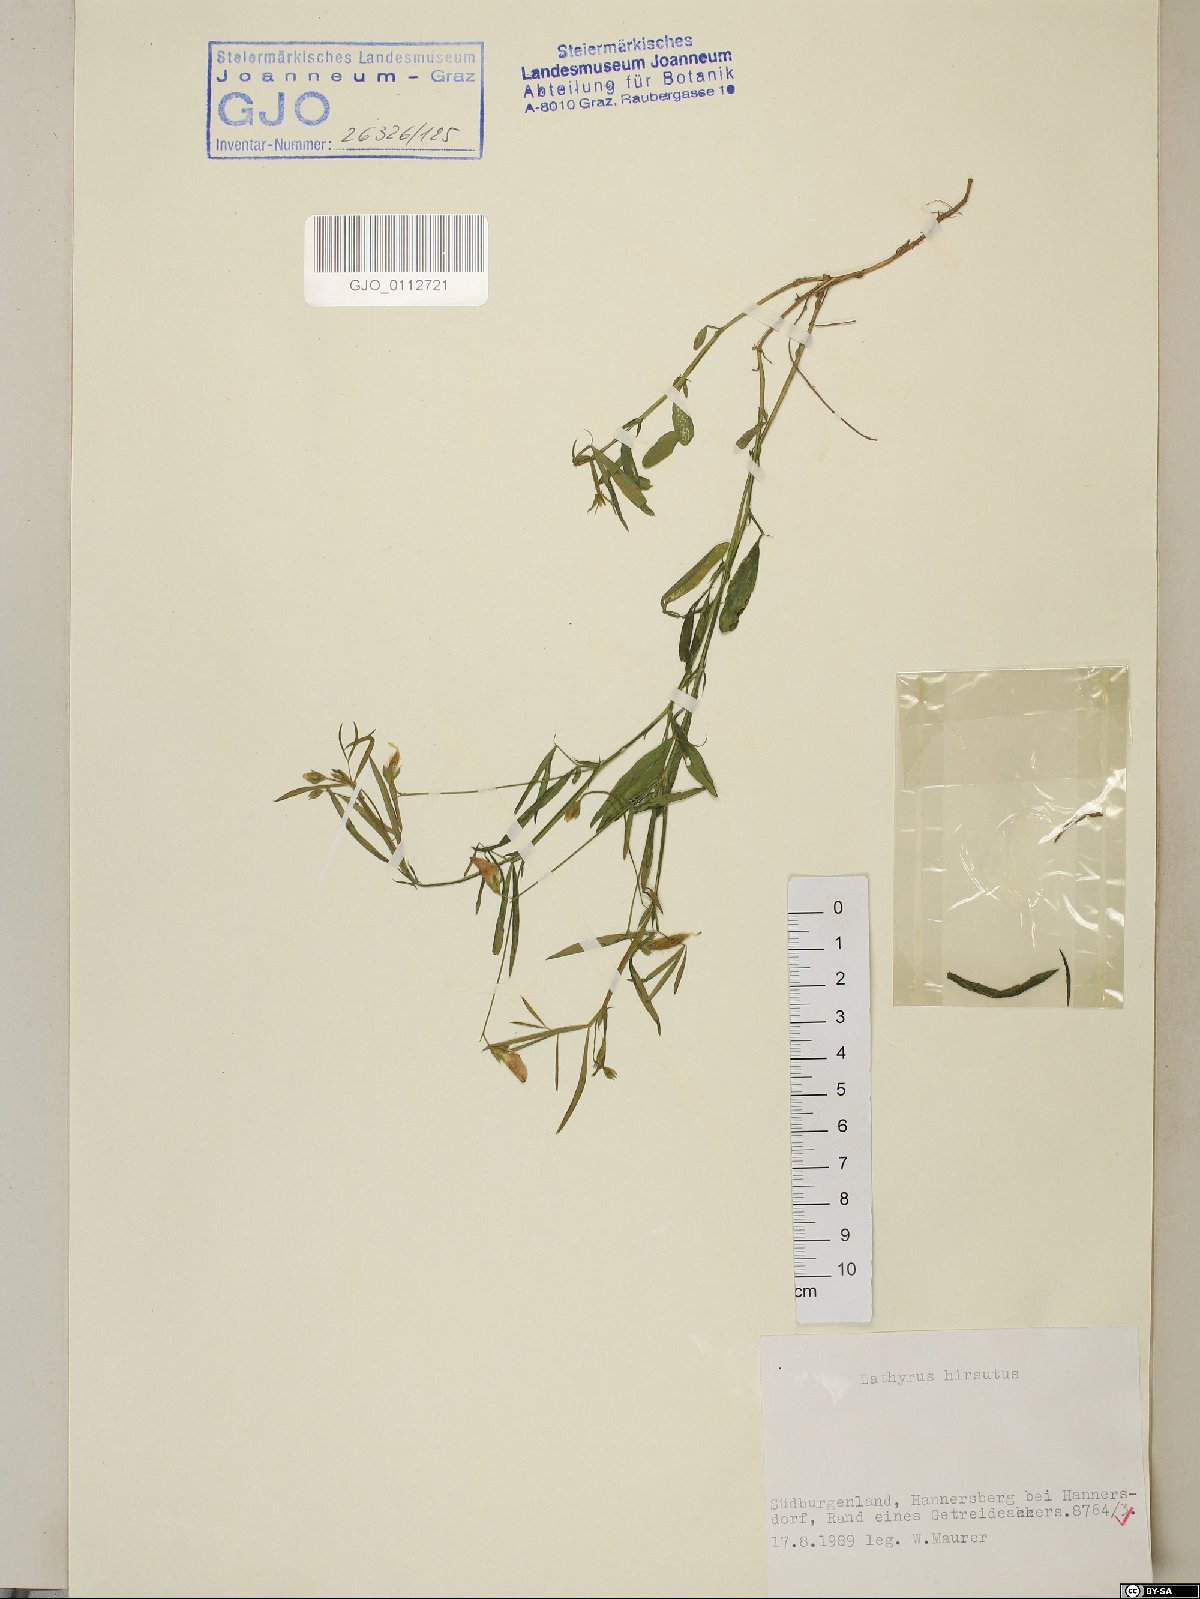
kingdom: Plantae
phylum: Tracheophyta
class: Magnoliopsida
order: Fabales
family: Fabaceae
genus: Lathyrus
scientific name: Lathyrus hirsutus
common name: Hairy vetchling
